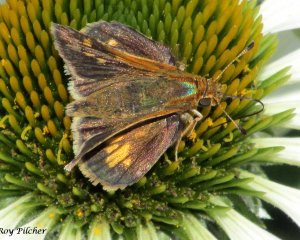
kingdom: Animalia
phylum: Arthropoda
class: Insecta
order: Lepidoptera
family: Hesperiidae
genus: Polites
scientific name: Polites coras
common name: Peck's Skipper
